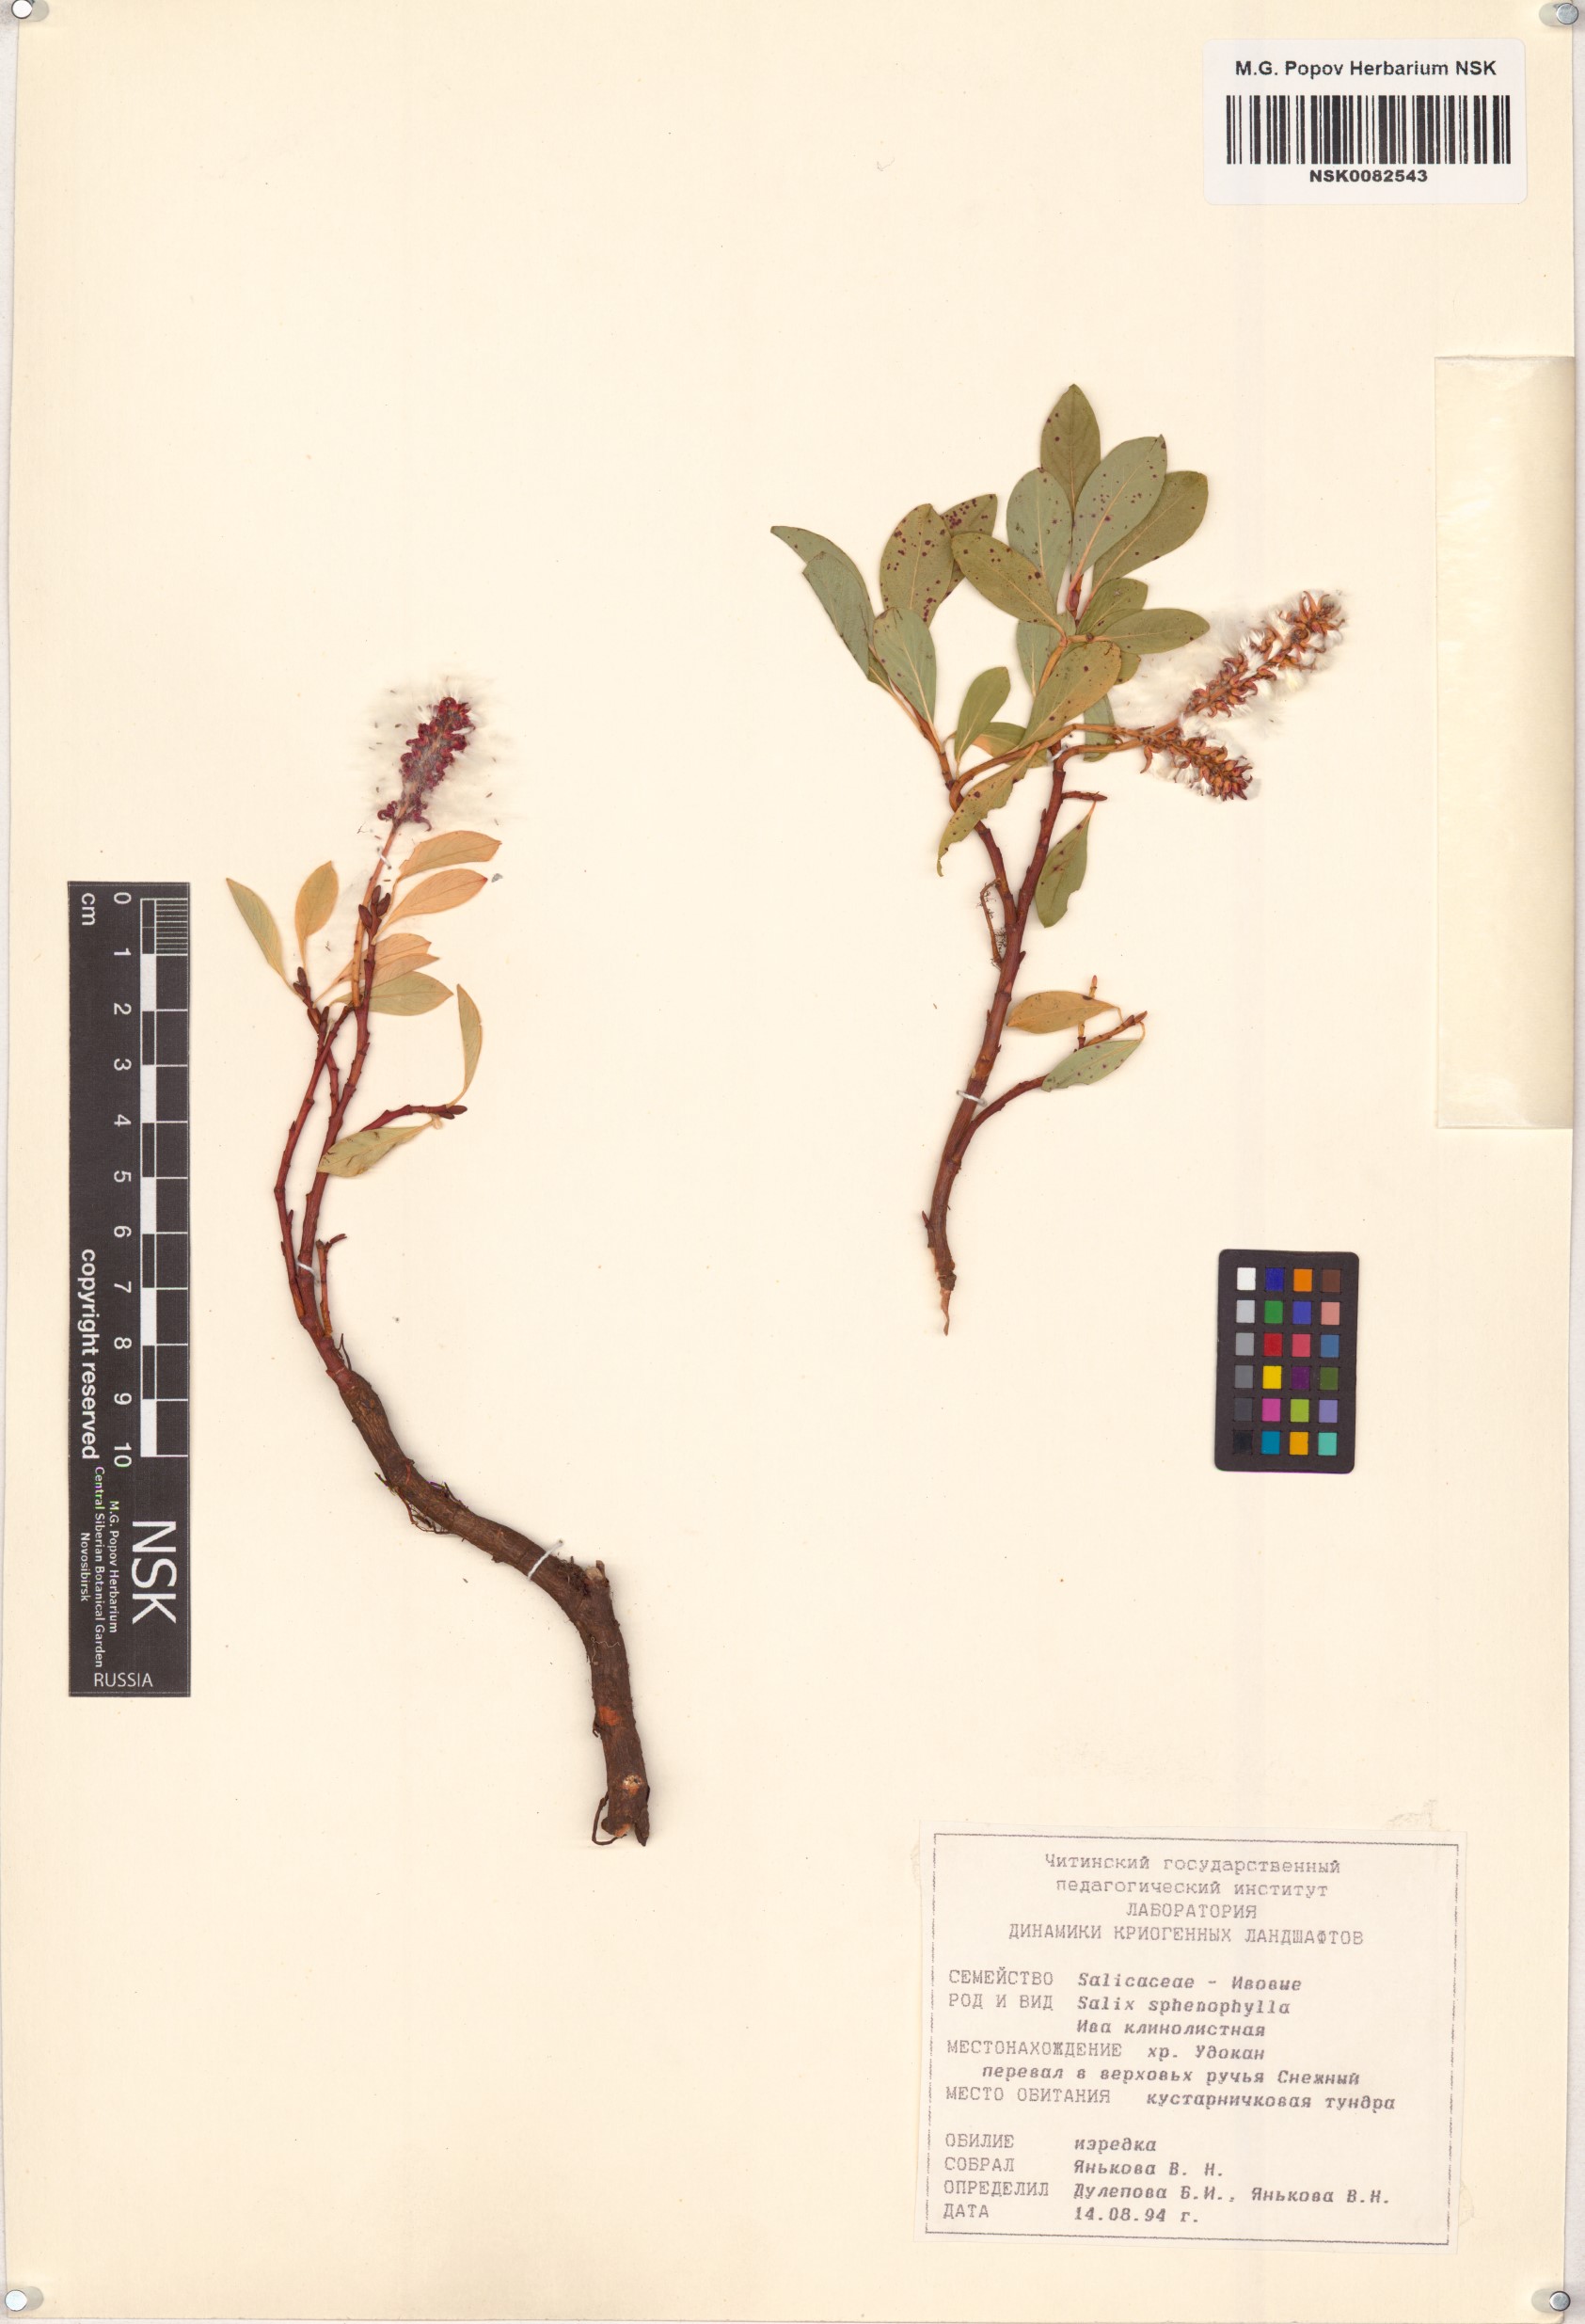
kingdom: Plantae
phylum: Tracheophyta
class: Magnoliopsida
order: Malpighiales
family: Salicaceae
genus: Salix
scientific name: Salix sphenophylla
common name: Wedge-leaved willow
